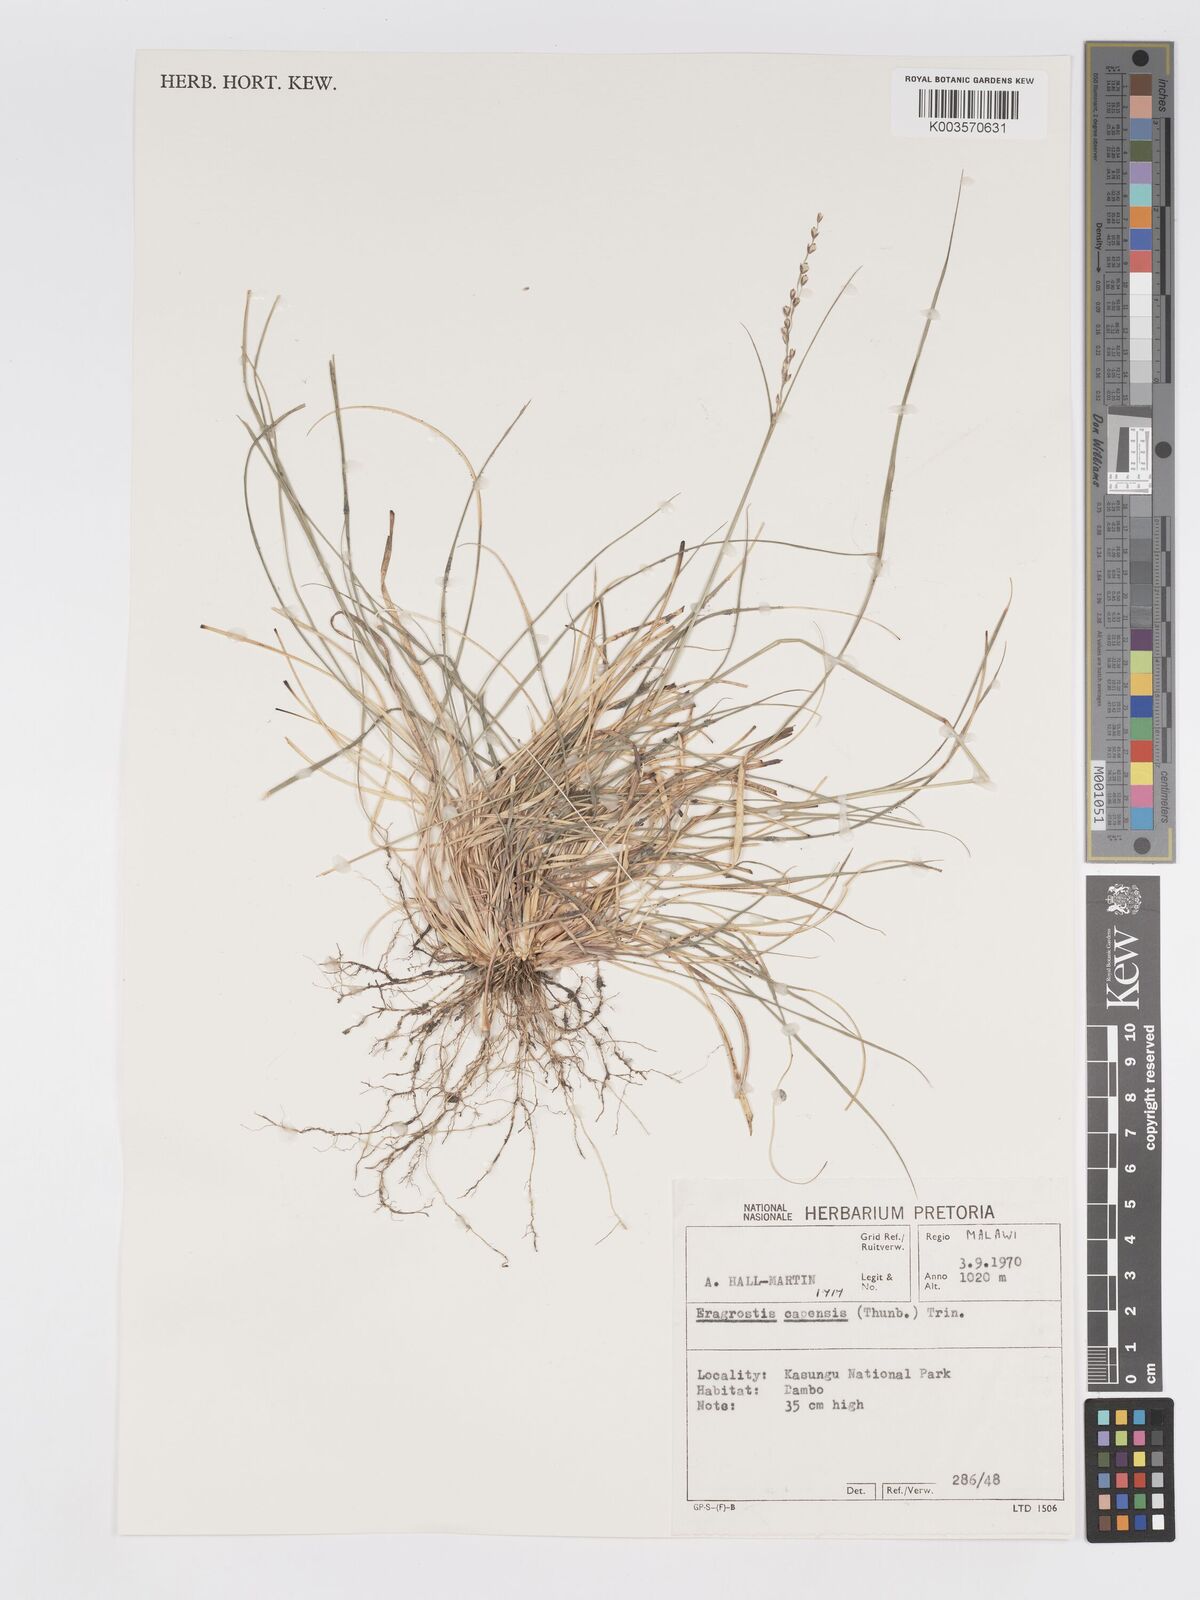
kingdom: Plantae
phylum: Tracheophyta
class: Liliopsida
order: Poales
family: Poaceae
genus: Eragrostis
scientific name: Eragrostis capensis
